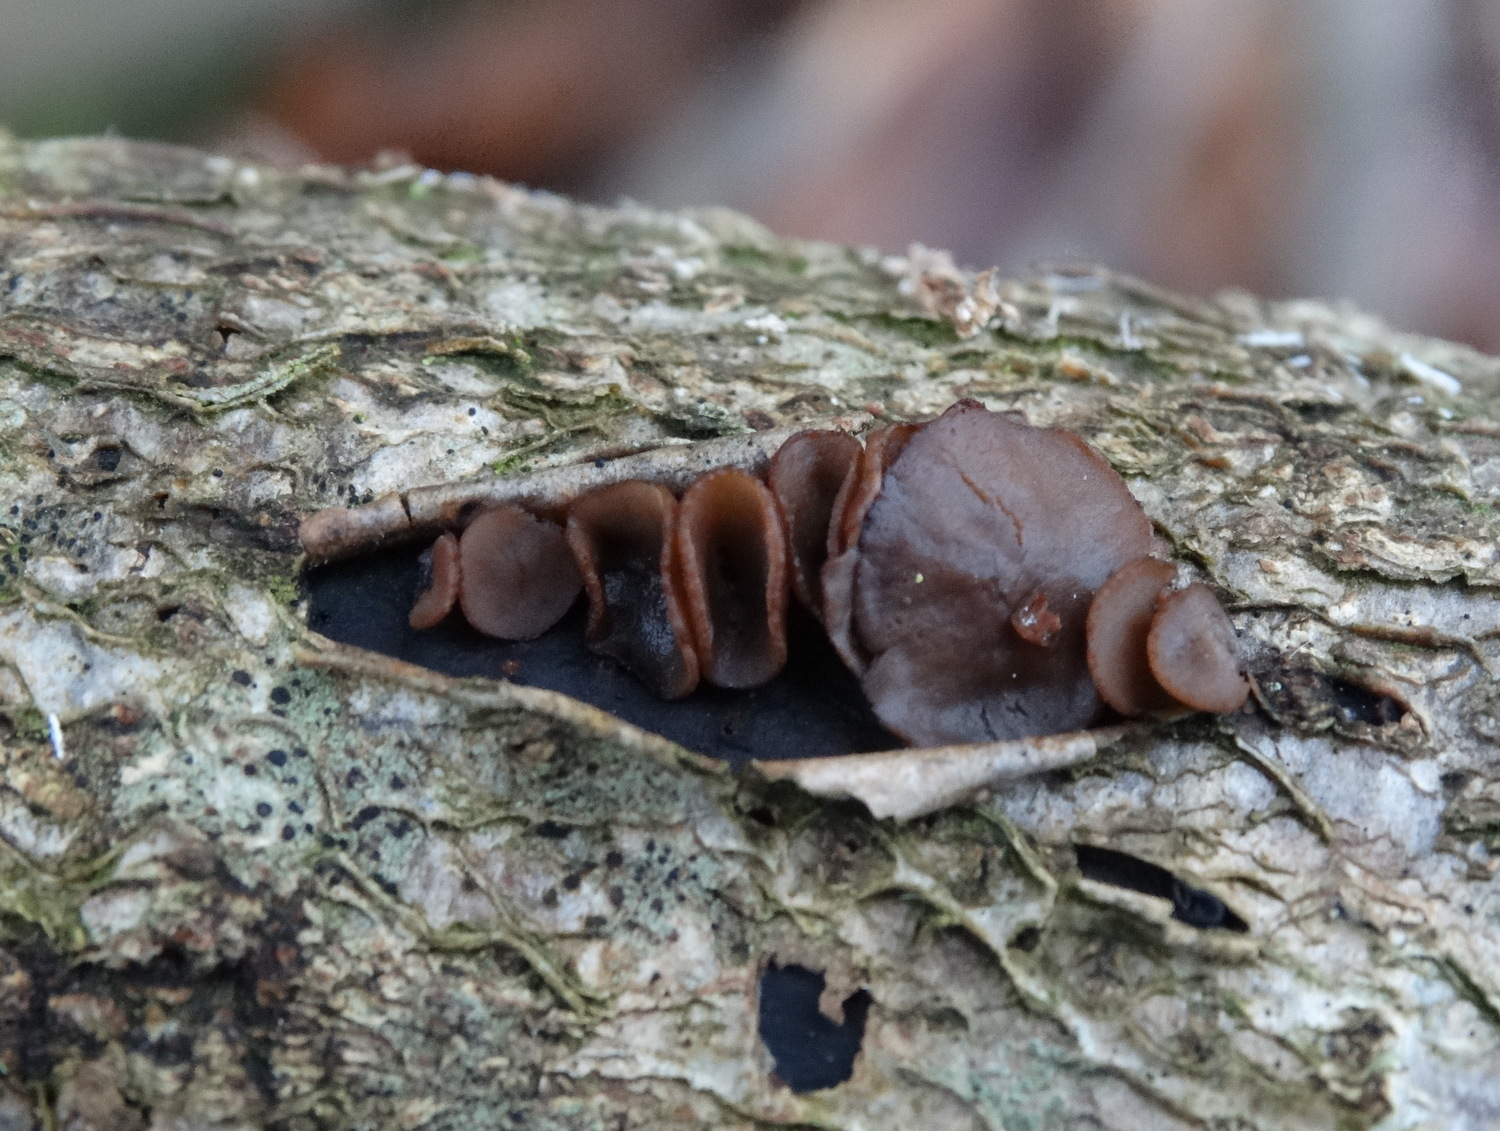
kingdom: Fungi
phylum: Ascomycota
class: Leotiomycetes
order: Helotiales
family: Rutstroemiaceae
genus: Rutstroemia
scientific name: Rutstroemia firma
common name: gren-brunskive
